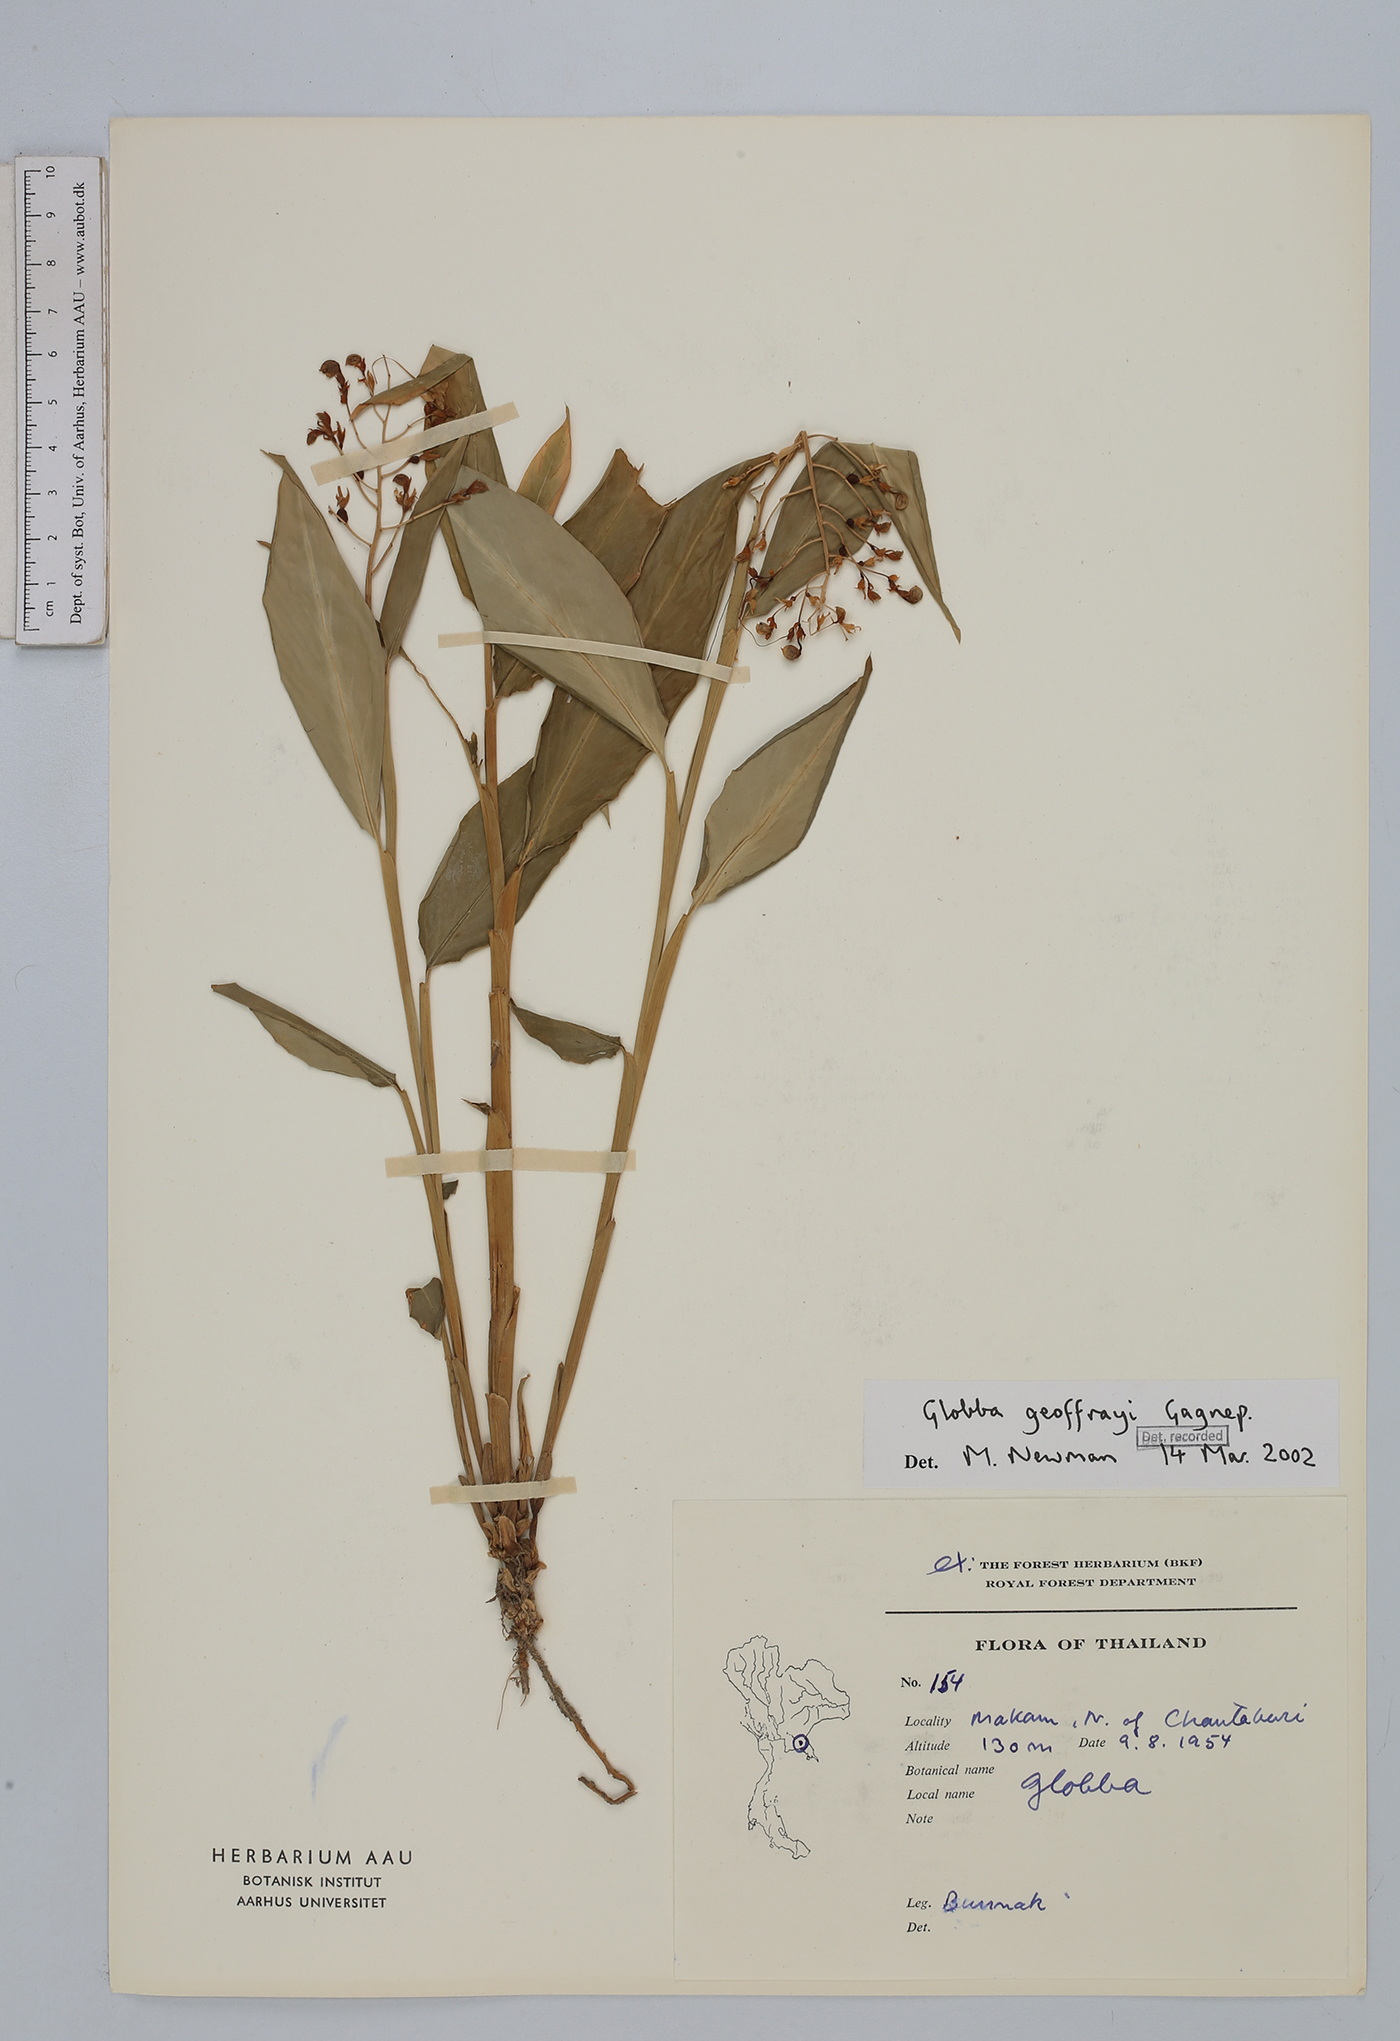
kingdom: Plantae
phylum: Tracheophyta
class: Liliopsida
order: Zingiberales
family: Zingiberaceae
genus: Globba
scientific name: Globba geoffrayi
